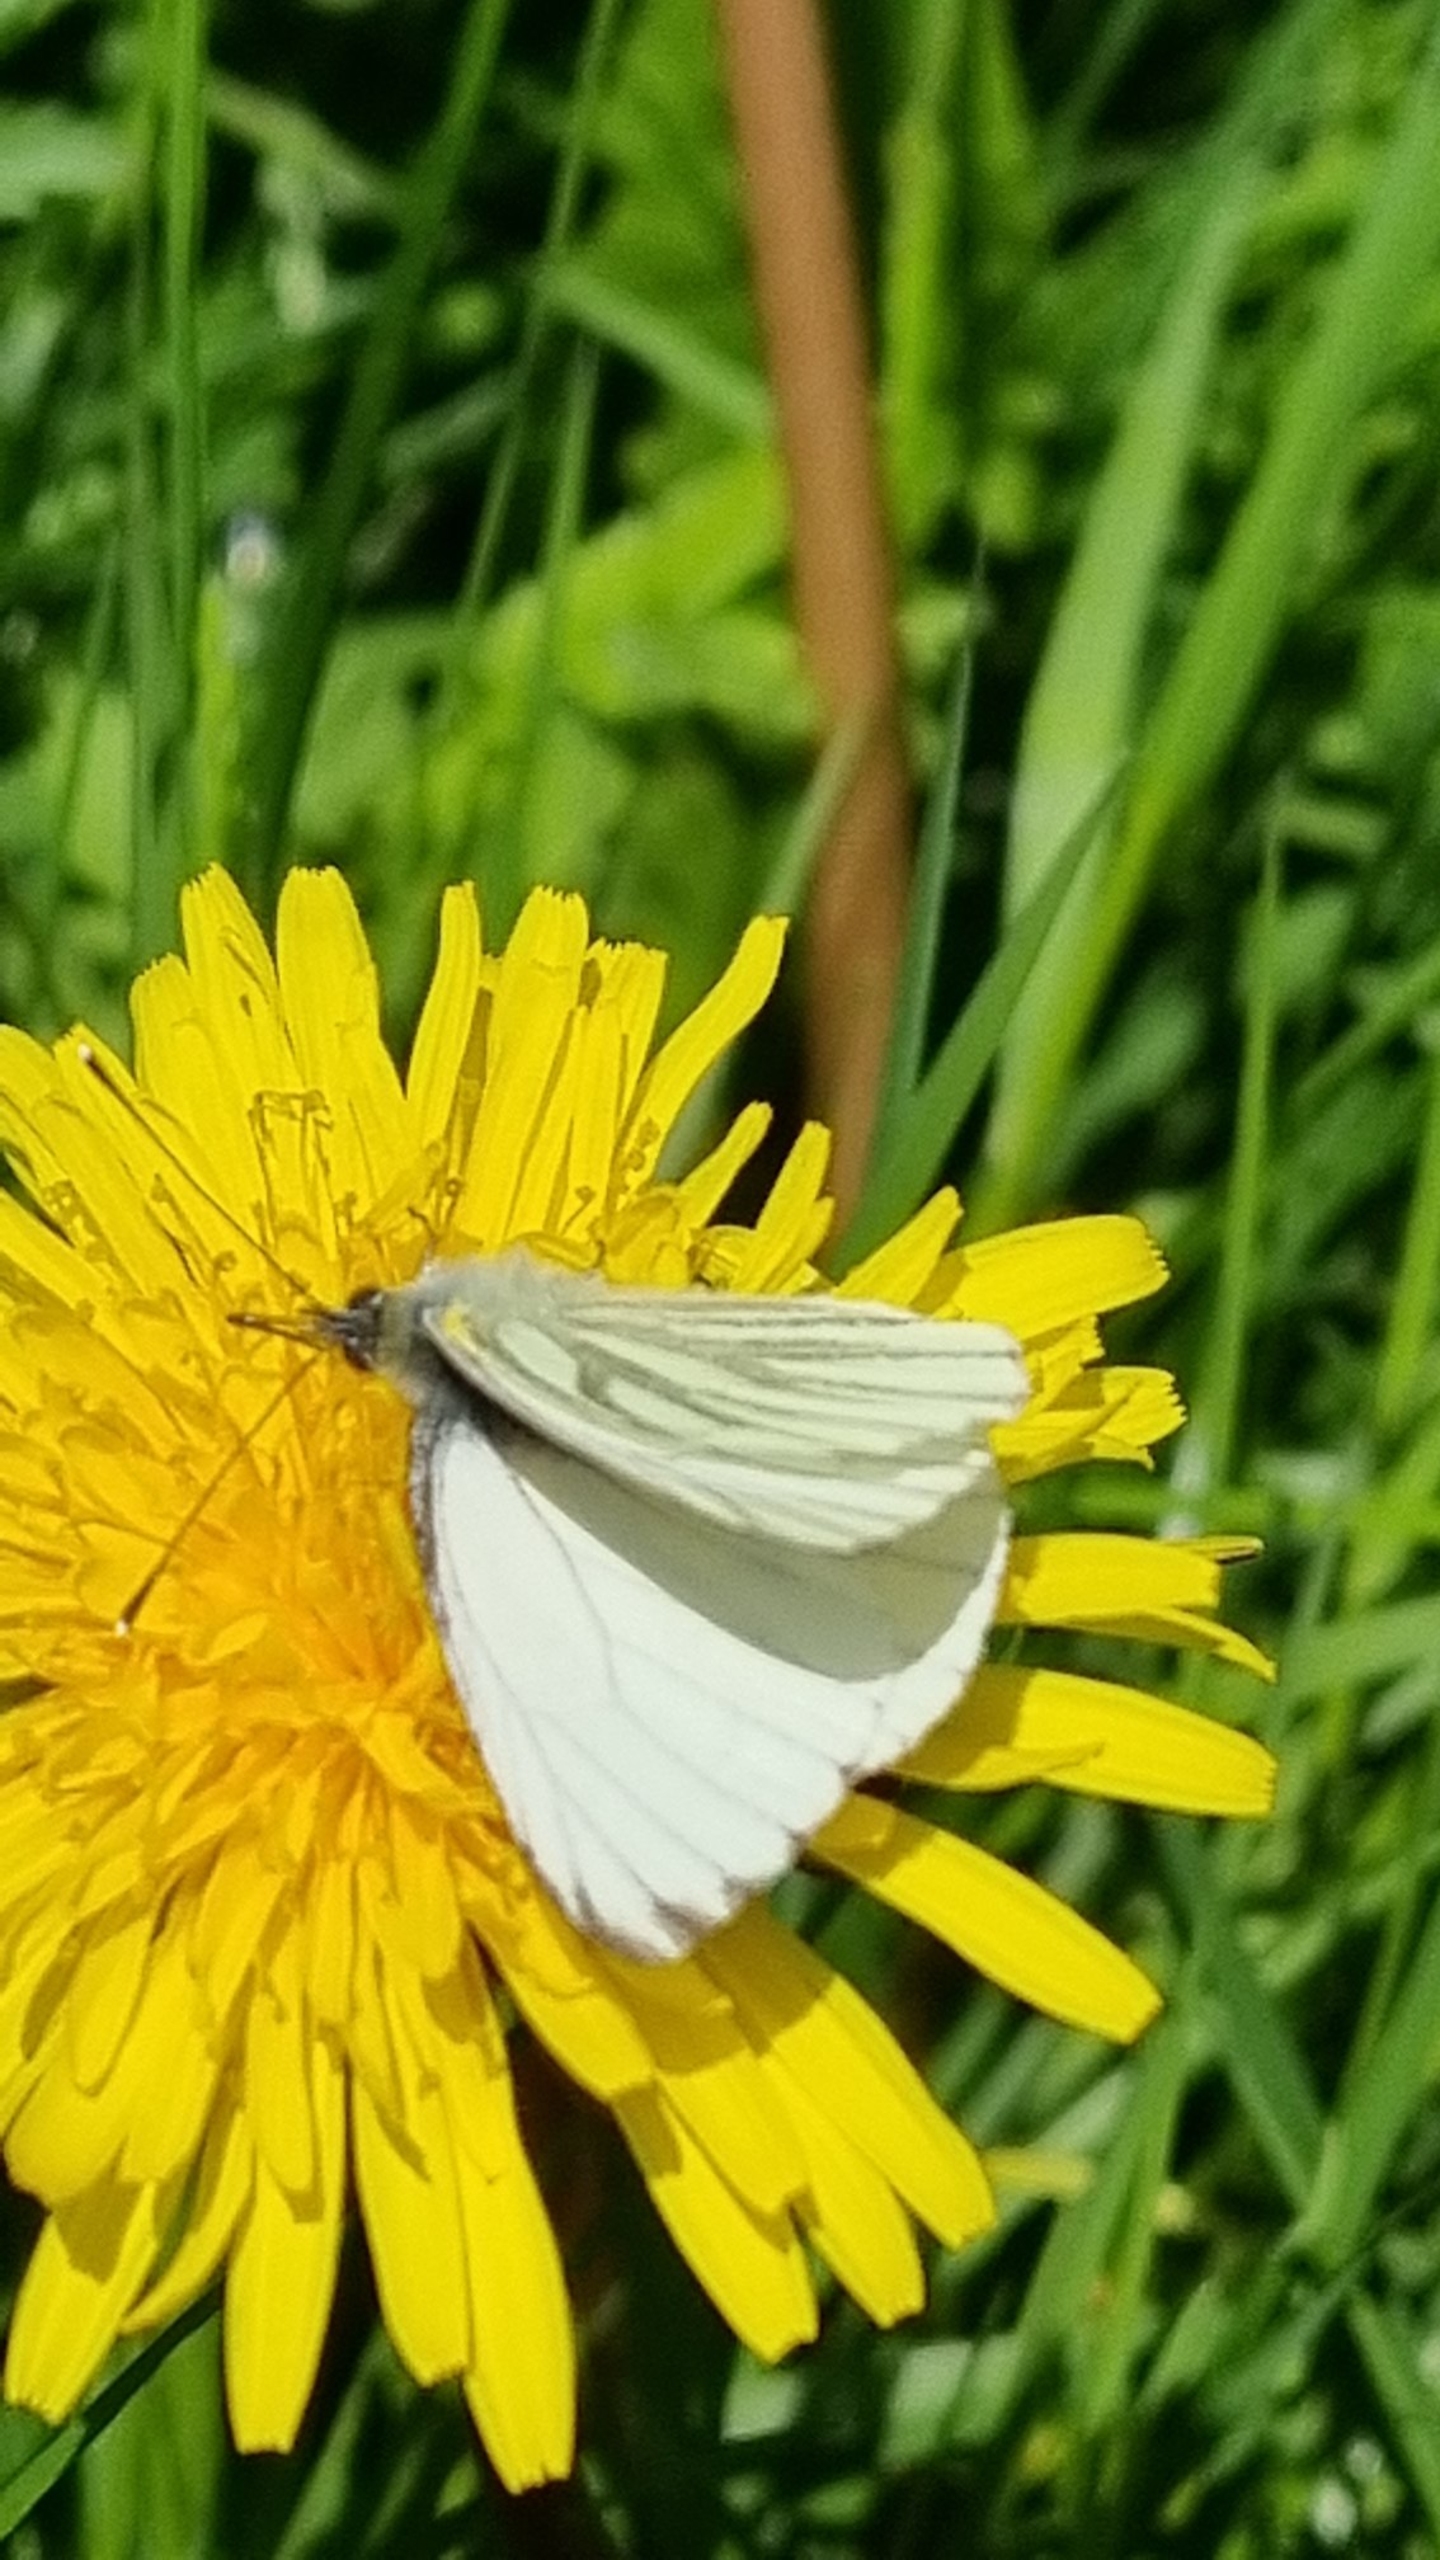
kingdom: Animalia
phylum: Arthropoda
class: Insecta
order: Lepidoptera
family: Pieridae
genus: Pieris
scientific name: Pieris napi
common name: Grønåret kålsommerfugl
